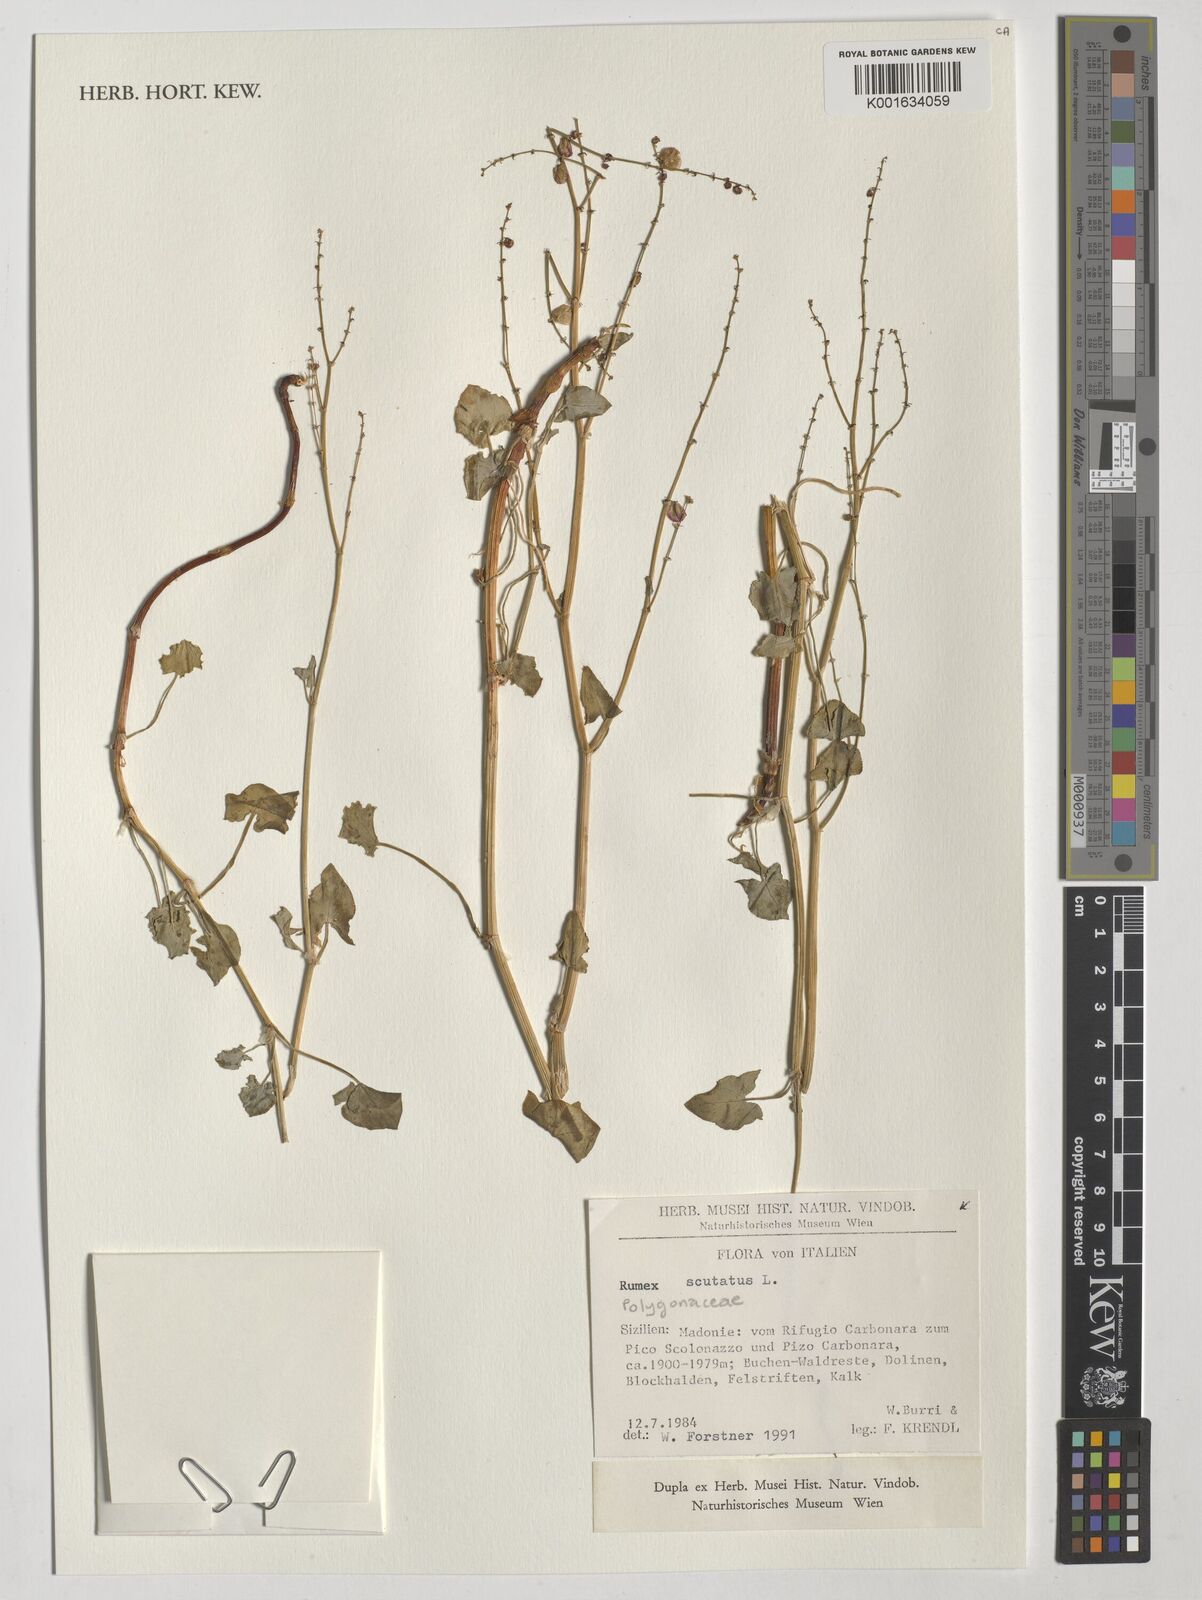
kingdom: Plantae
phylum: Tracheophyta
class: Magnoliopsida
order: Caryophyllales
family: Polygonaceae
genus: Rumex
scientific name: Rumex scutatus
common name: French sorrel
